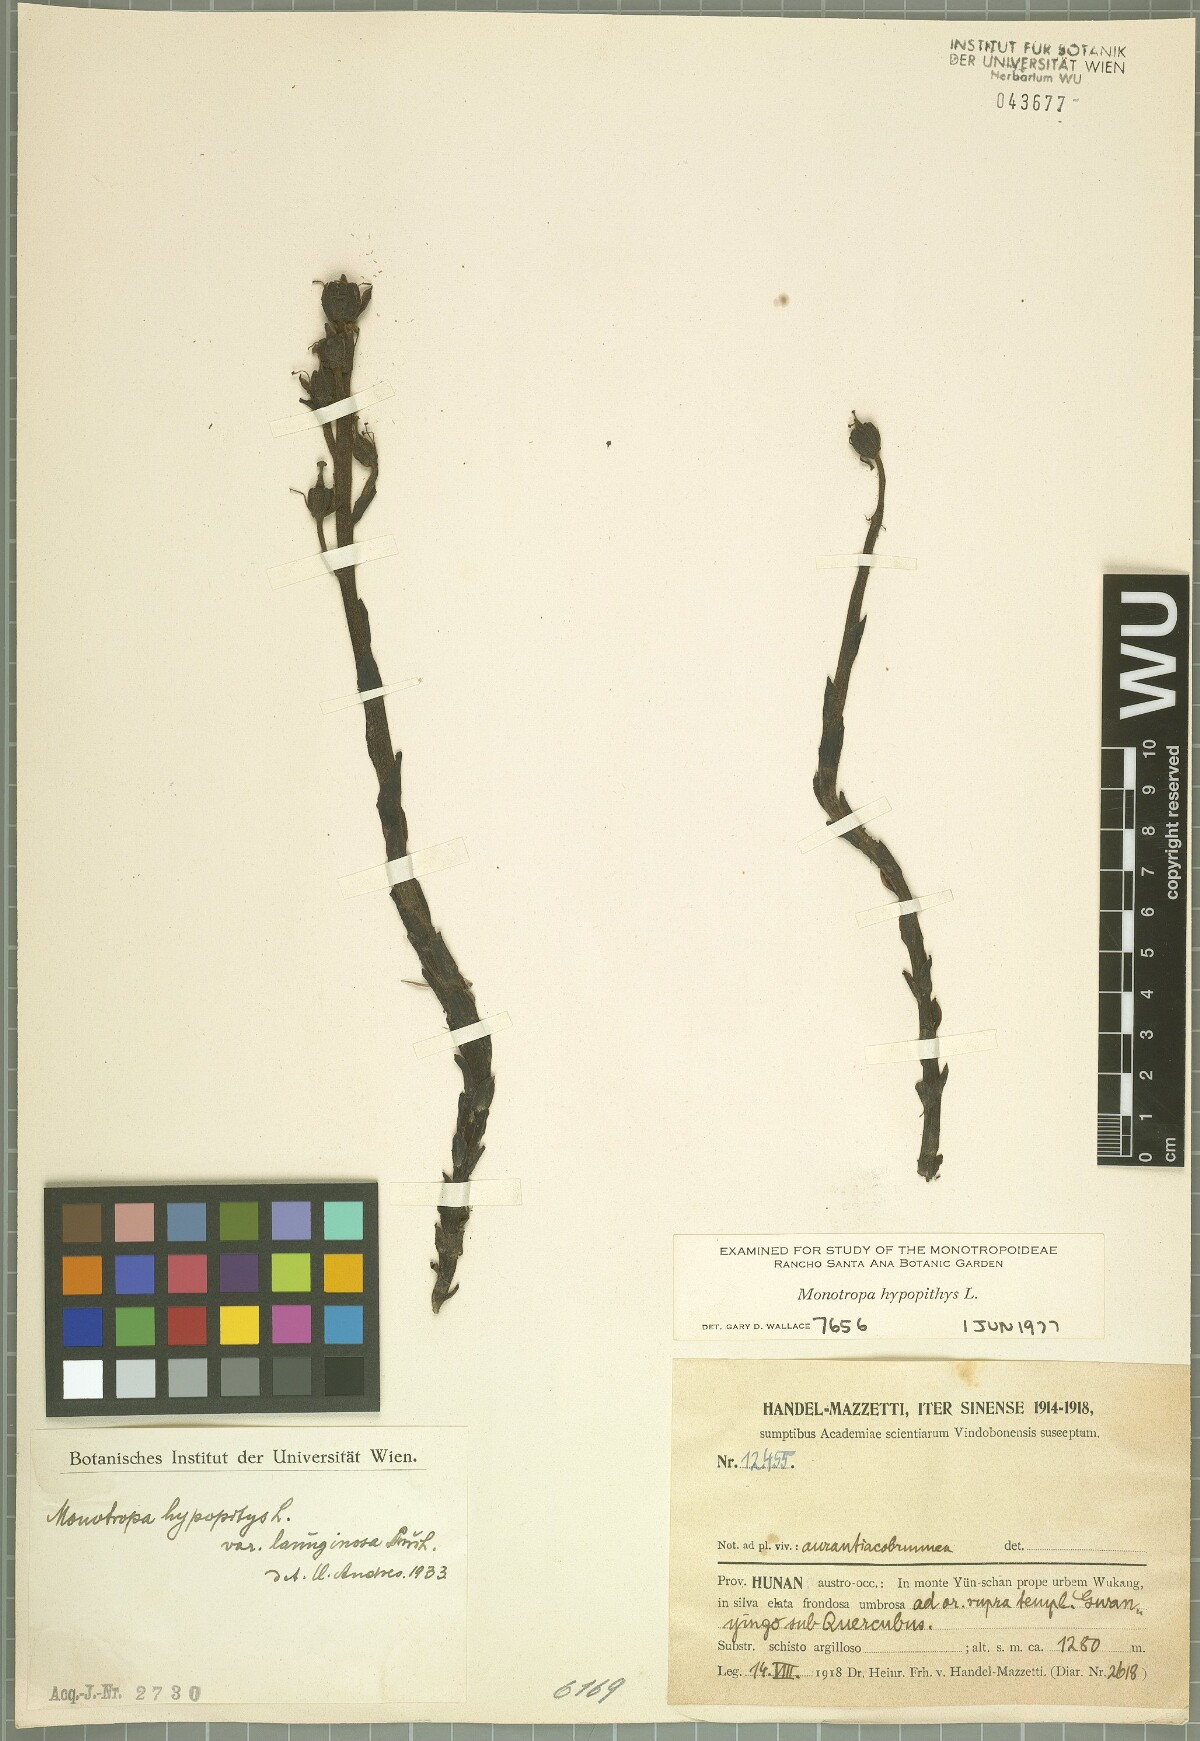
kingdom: Plantae
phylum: Tracheophyta
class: Magnoliopsida
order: Ericales
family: Ericaceae
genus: Hypopitys
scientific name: Hypopitys monotropa
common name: Yellow bird's-nest
